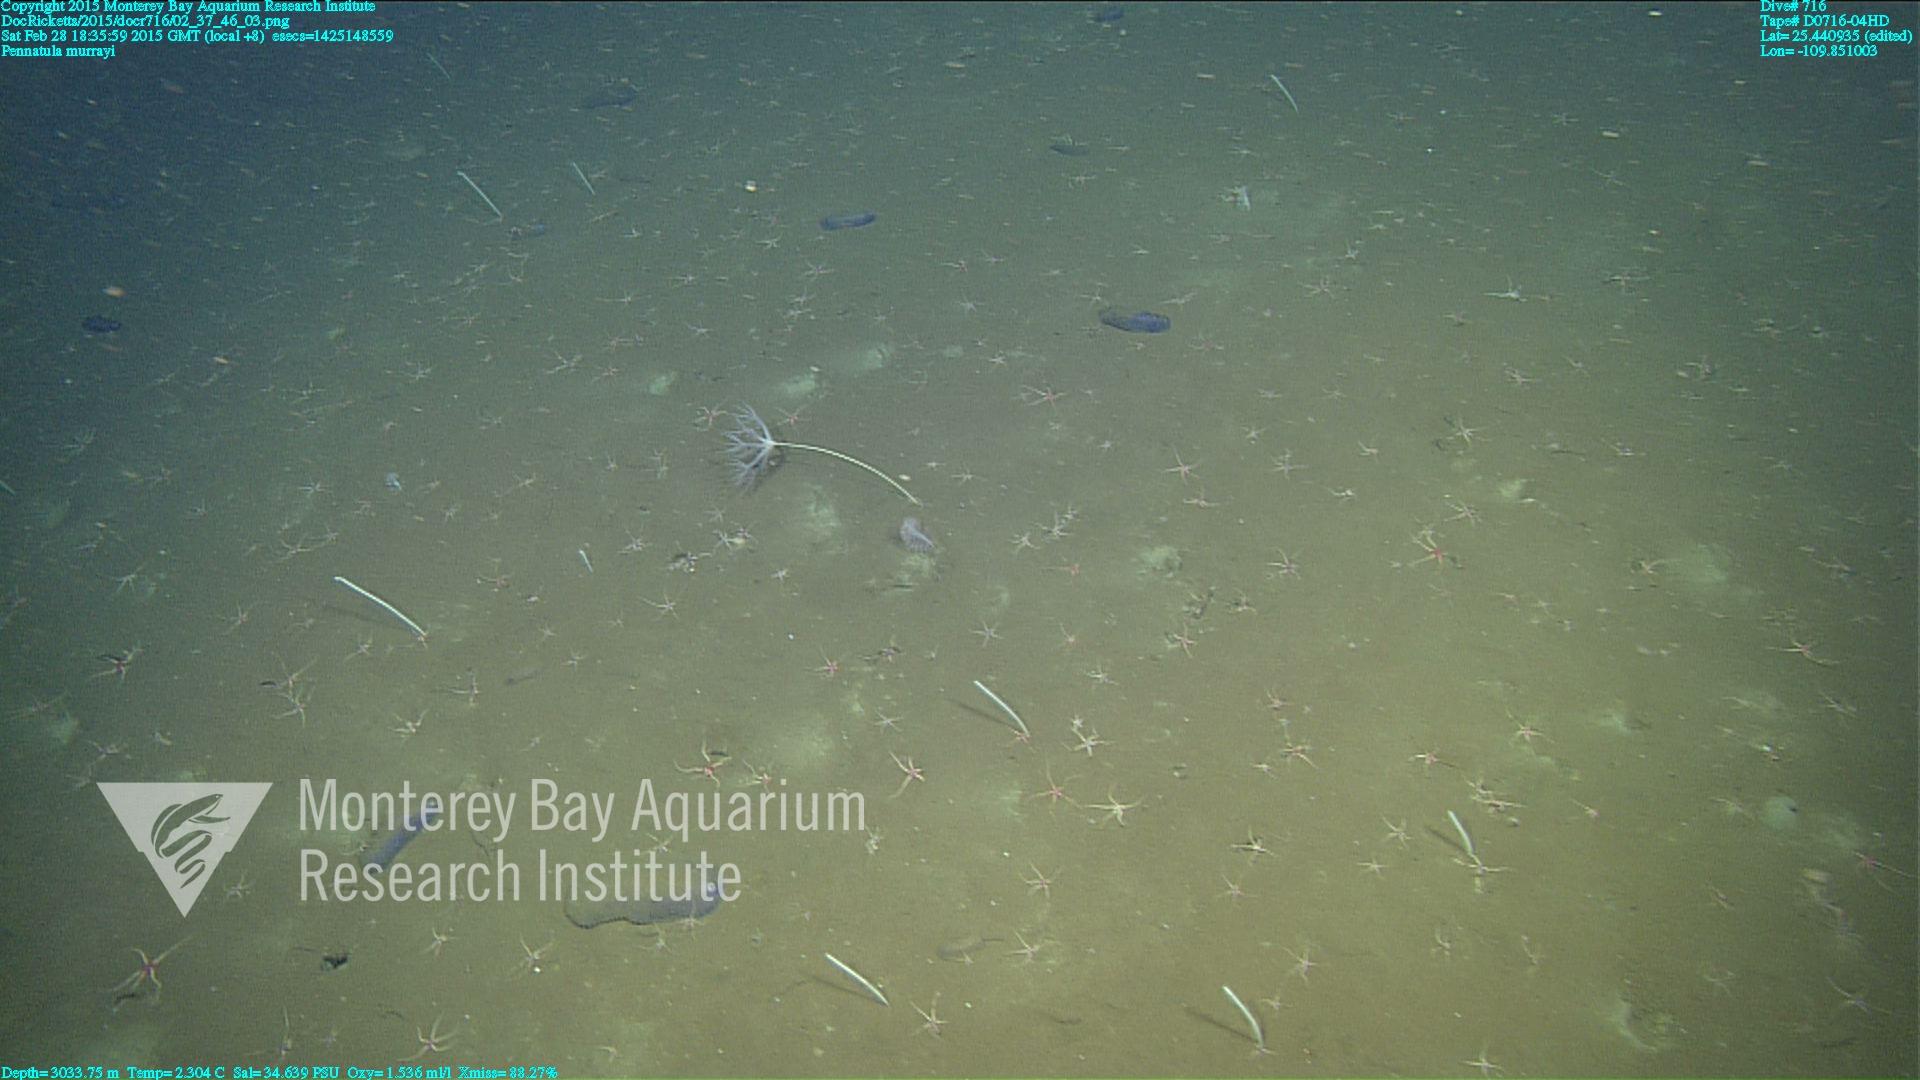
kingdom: Animalia
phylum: Cnidaria
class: Anthozoa
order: Scleralcyonacea
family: Pennatulidae
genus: Pennatula
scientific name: Pennatula murrayi
